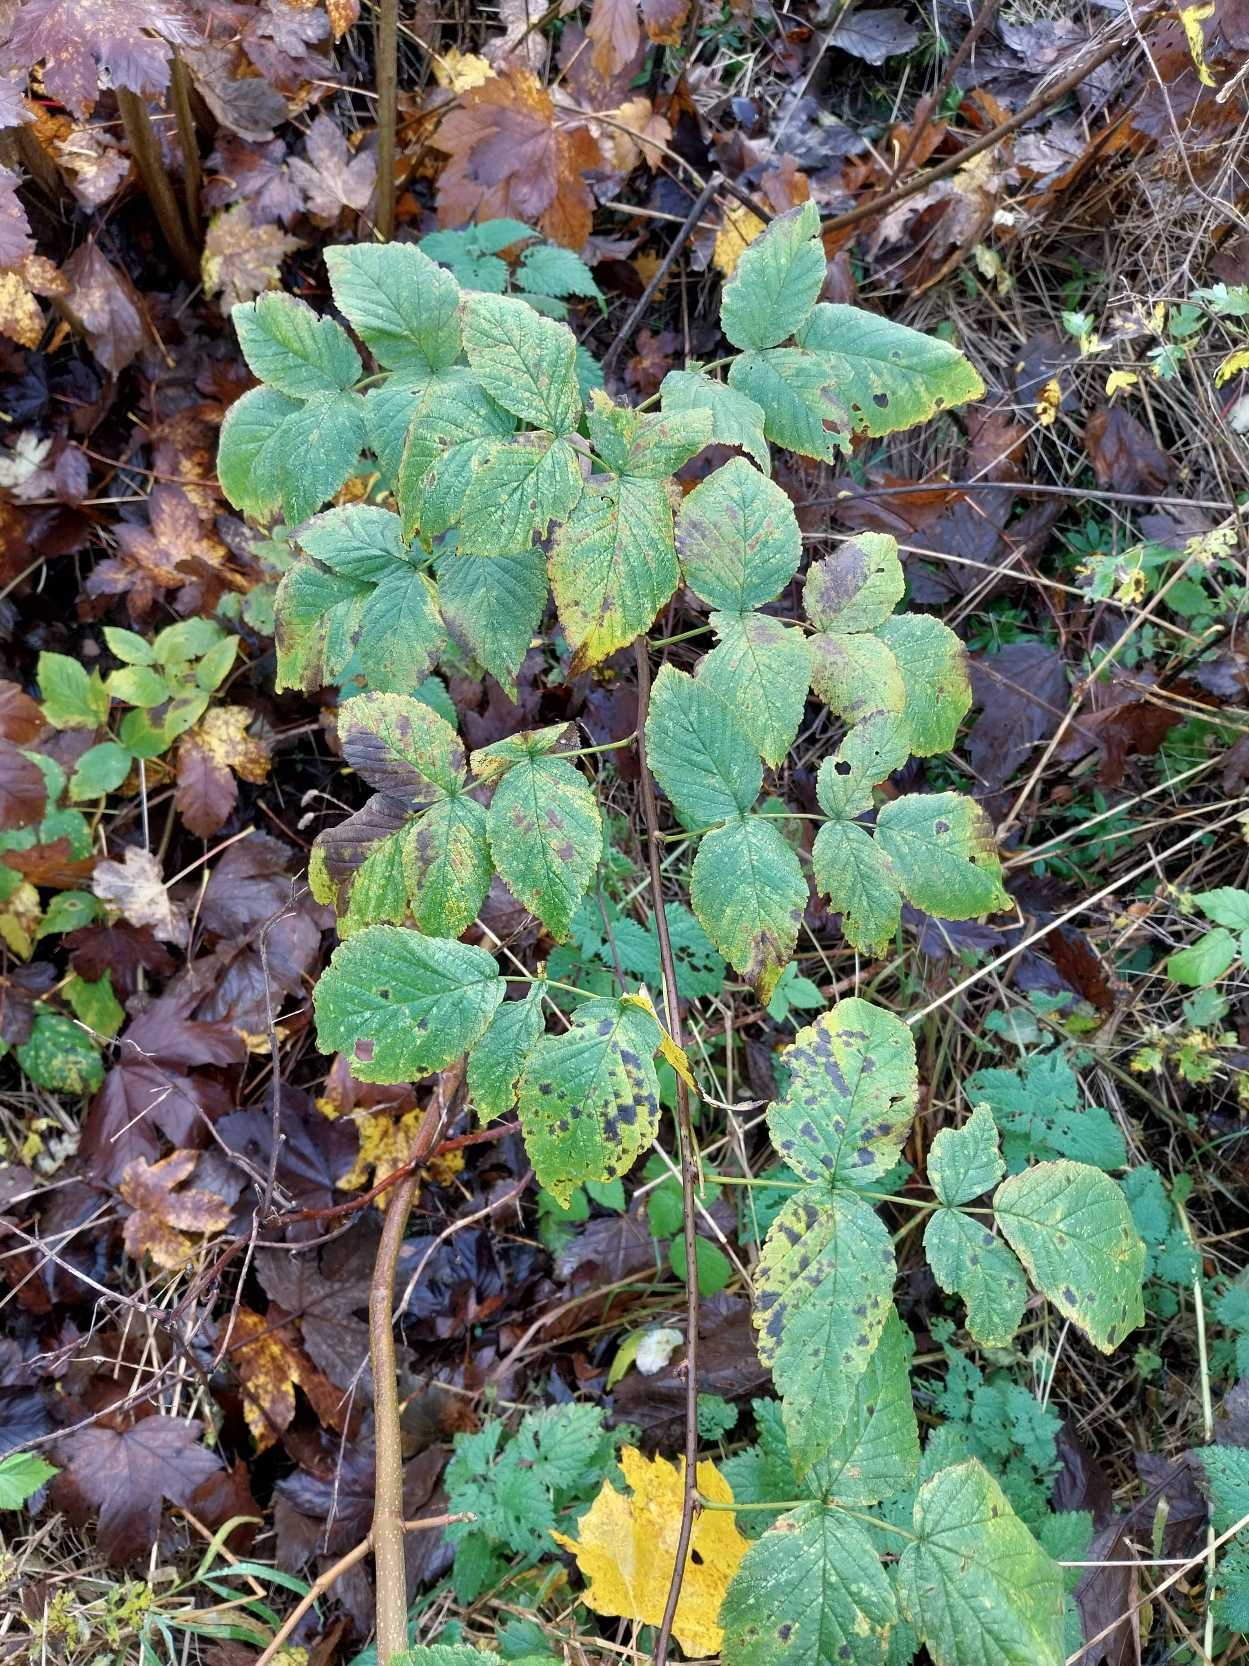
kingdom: Plantae
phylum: Tracheophyta
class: Magnoliopsida
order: Rosales
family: Rosaceae
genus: Rubus
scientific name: Rubus idaeus
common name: Hindbær
